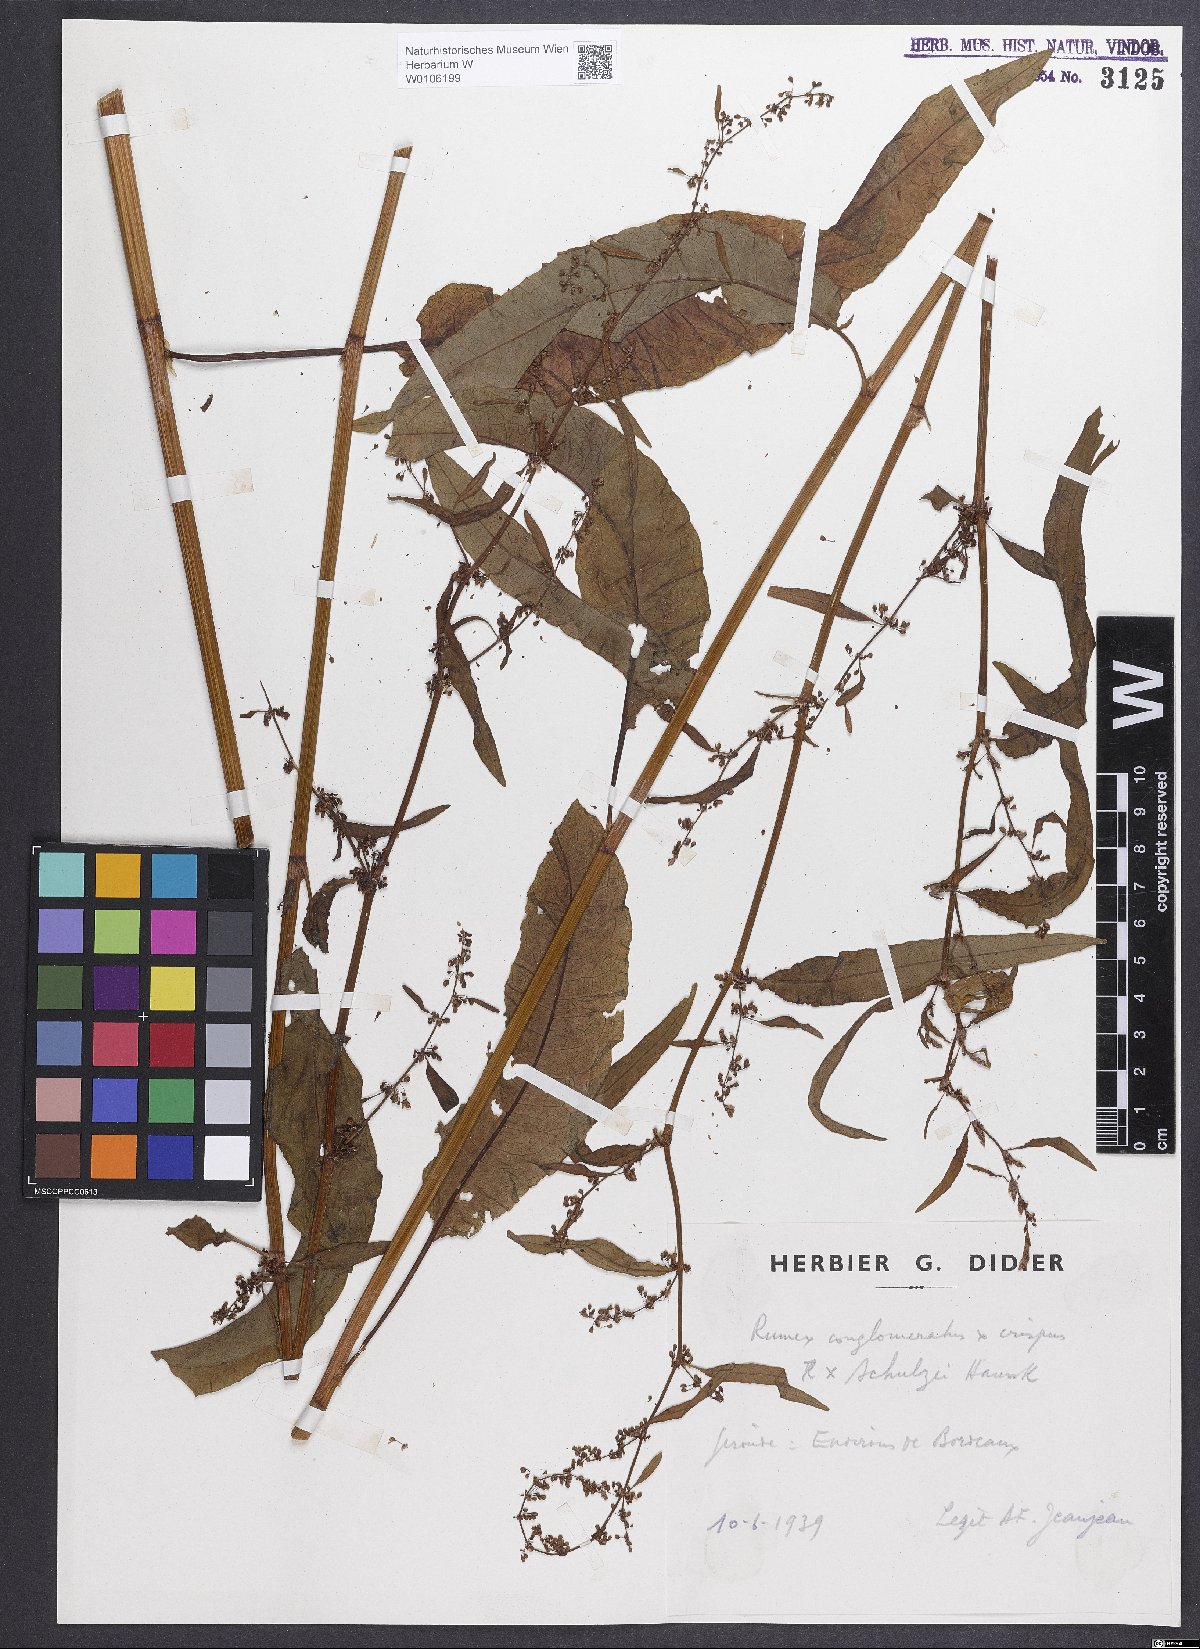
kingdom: Plantae
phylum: Tracheophyta
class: Magnoliopsida
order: Caryophyllales
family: Polygonaceae
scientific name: Polygonaceae
